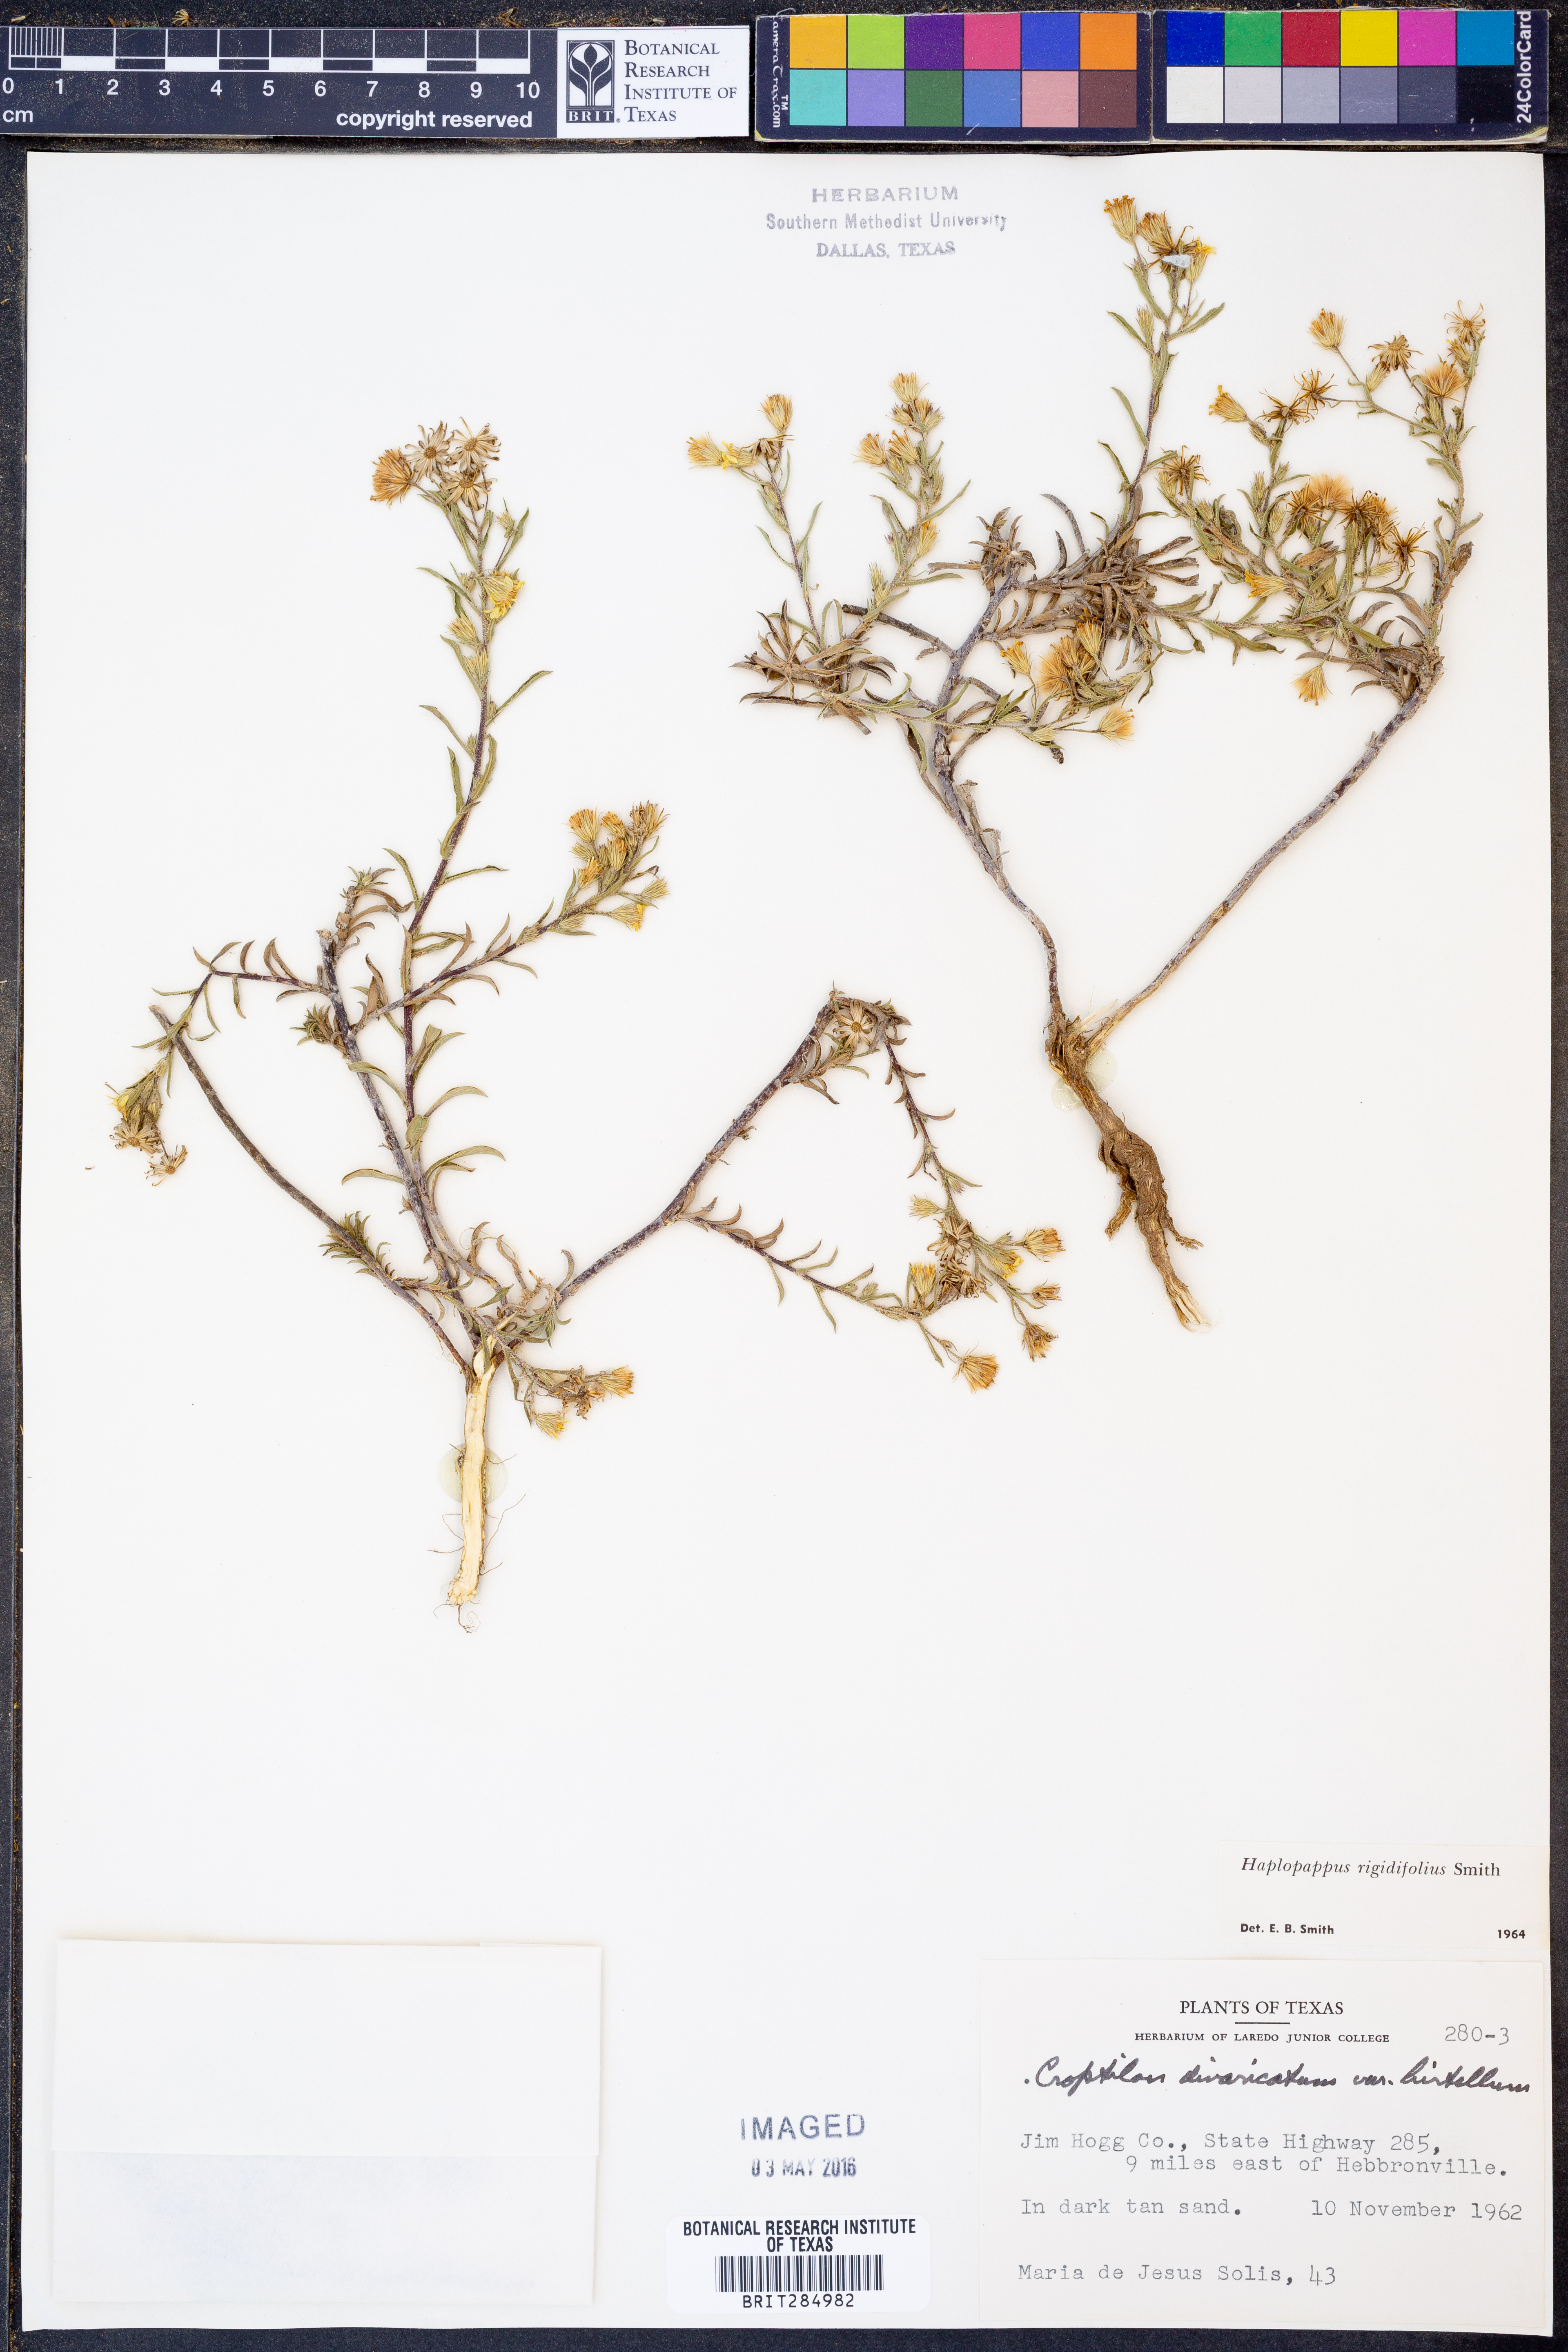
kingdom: Plantae
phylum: Tracheophyta
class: Magnoliopsida
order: Asterales
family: Asteraceae
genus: Croptilon
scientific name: Croptilon rigidifolium
